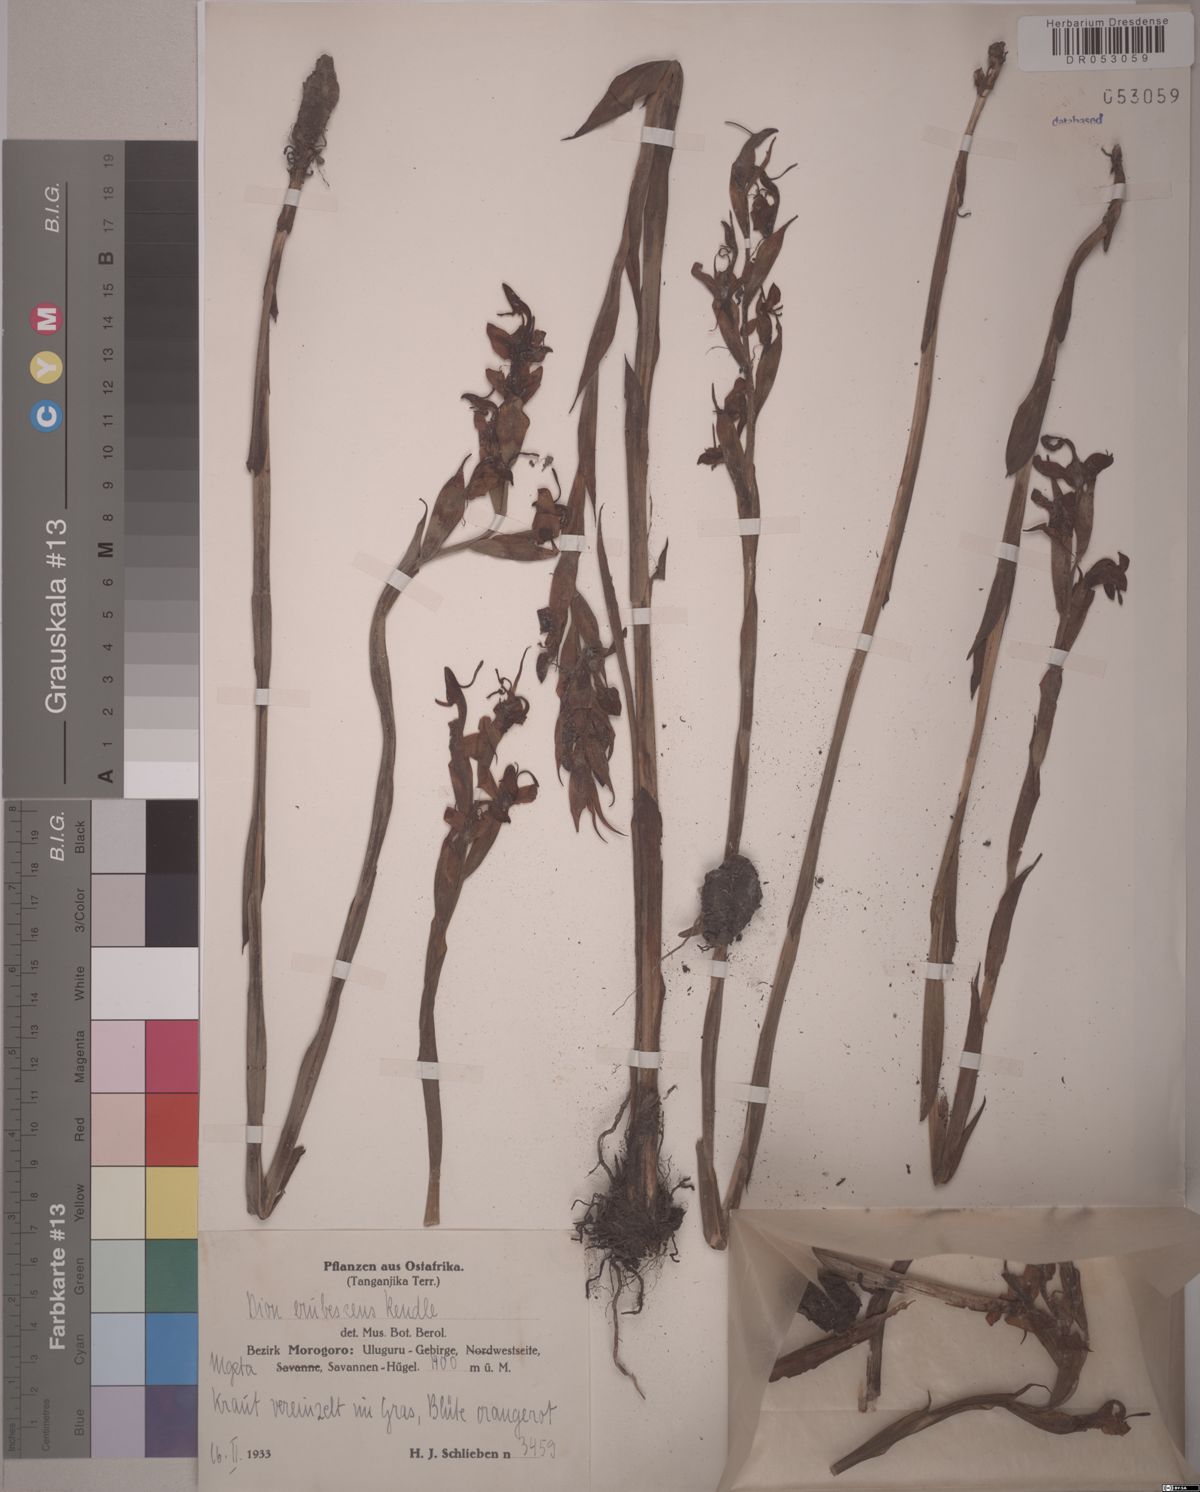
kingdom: Plantae
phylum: Tracheophyta
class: Liliopsida
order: Asparagales
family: Orchidaceae
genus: Disa
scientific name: Disa erubescens
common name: The rose disa
